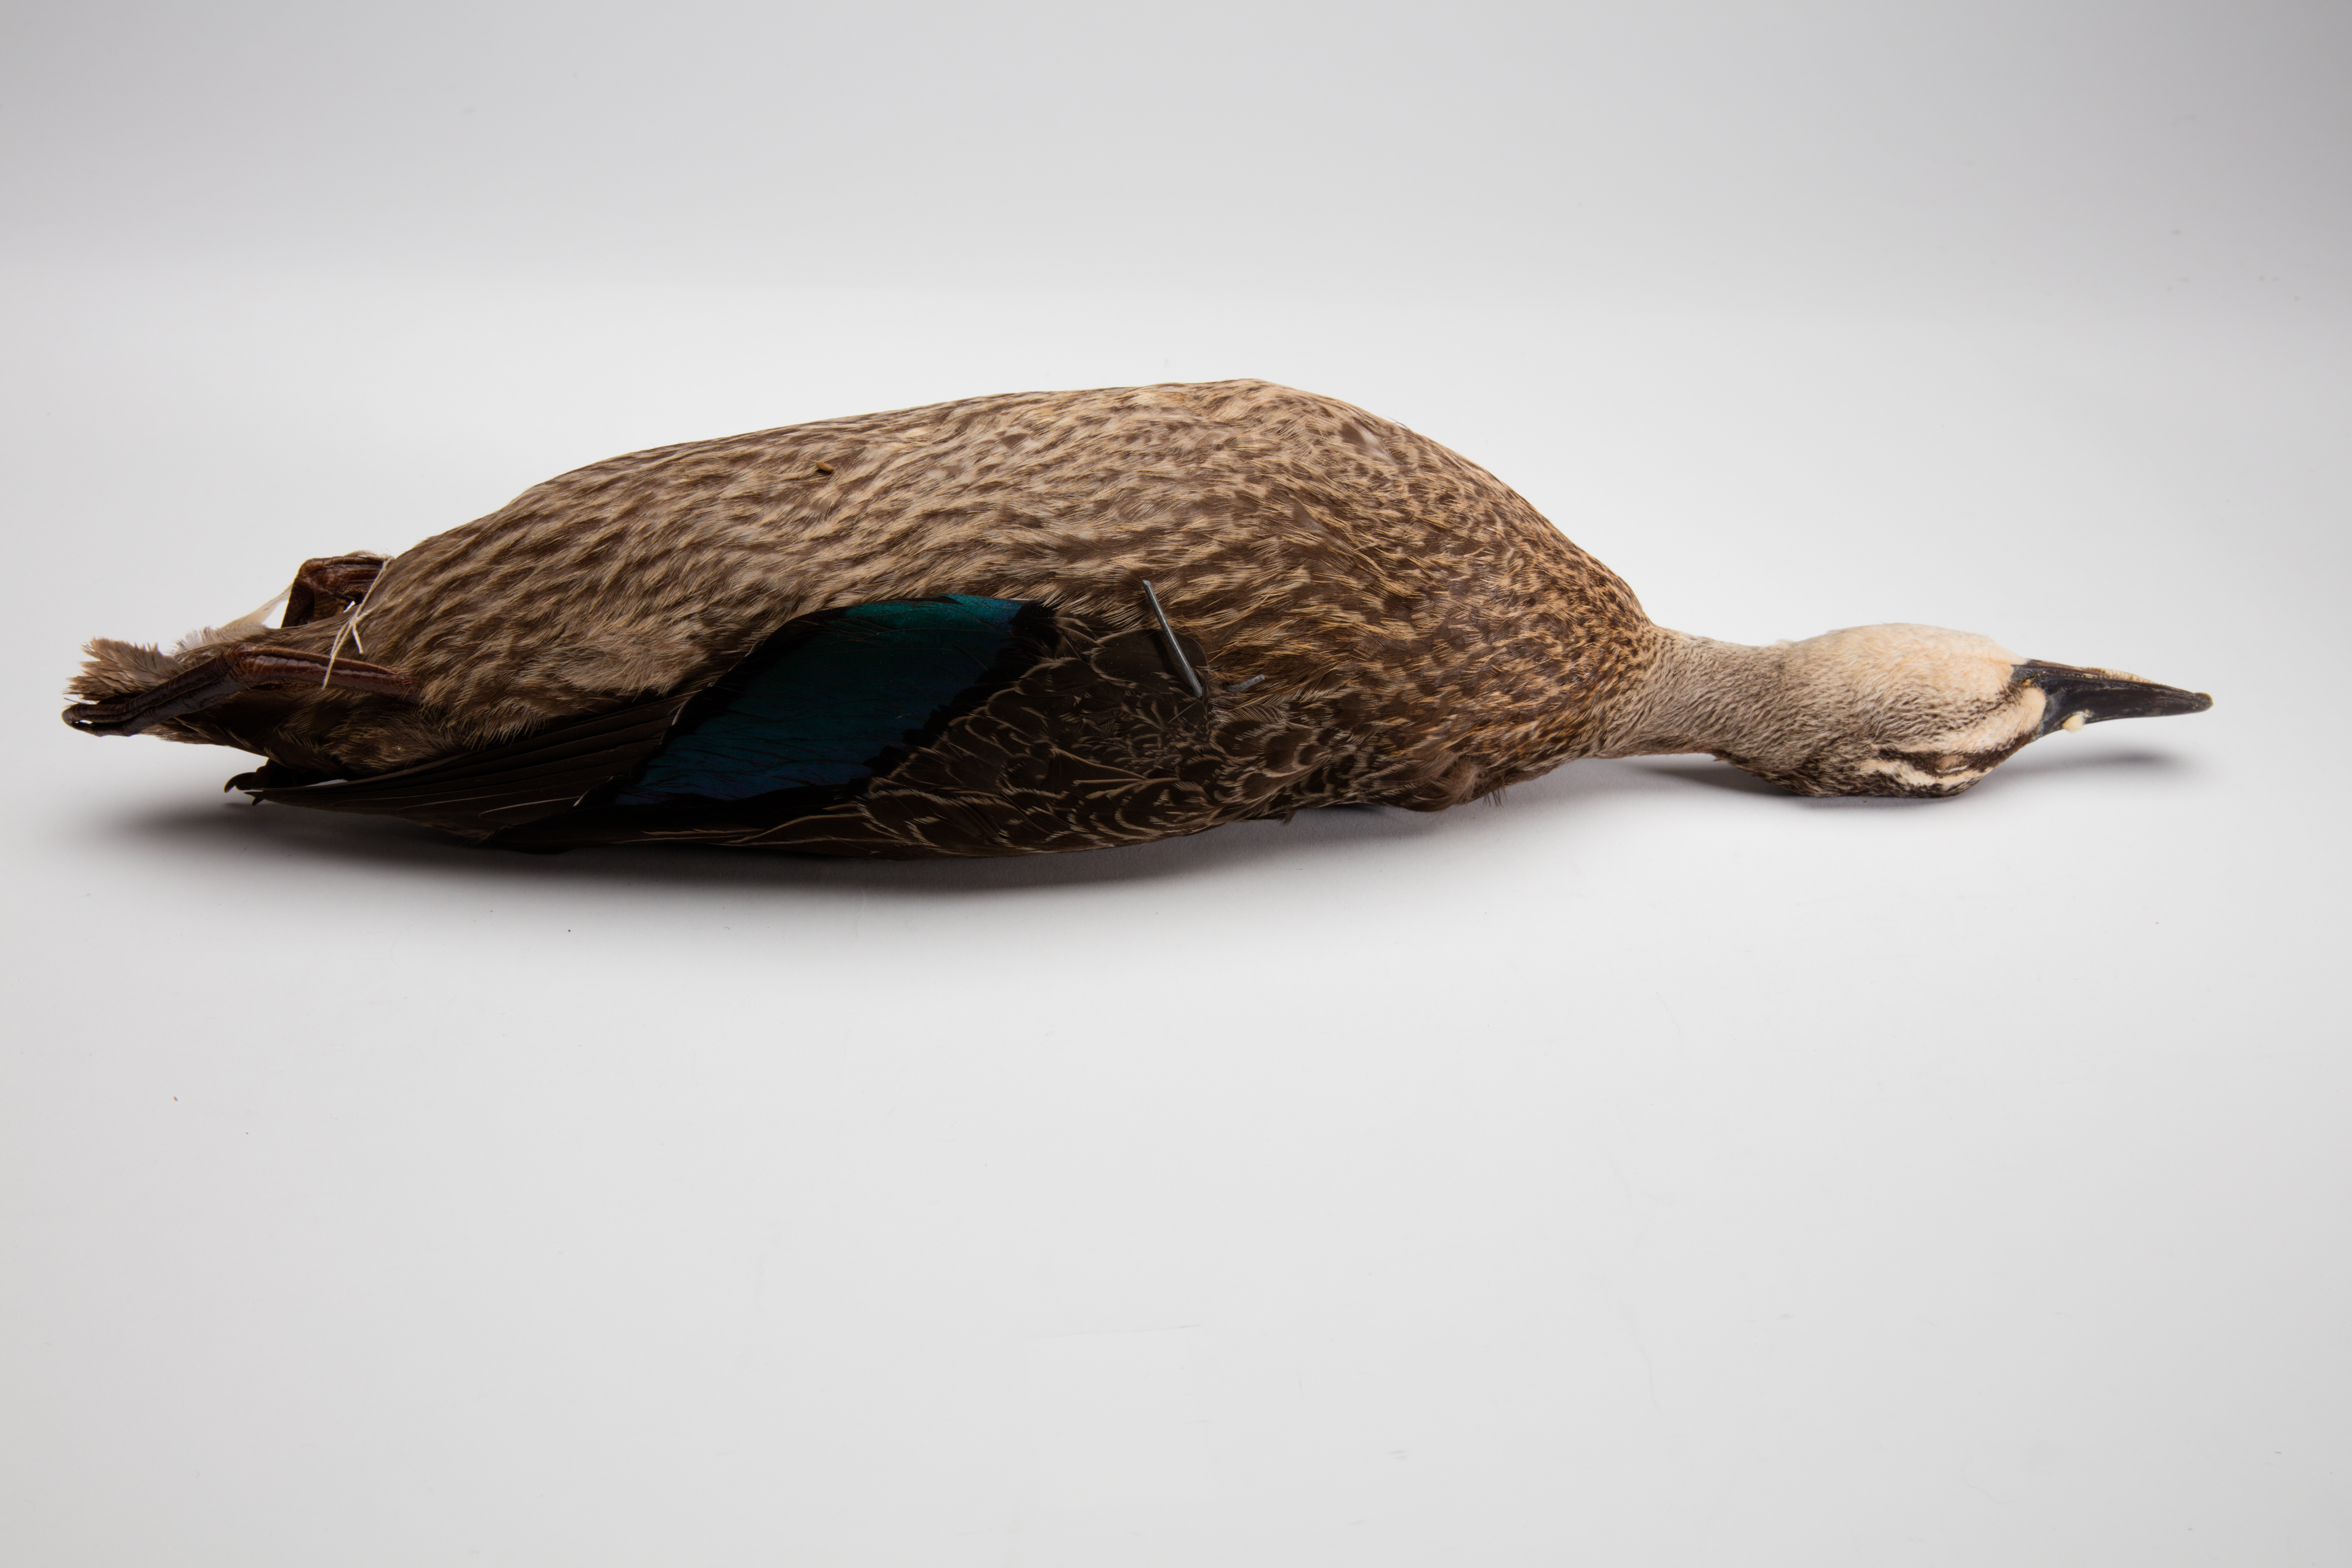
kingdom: Animalia
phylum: Chordata
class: Aves
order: Anseriformes
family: Anatidae
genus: Anas
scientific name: Anas superciliosa
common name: Pacific black duck
